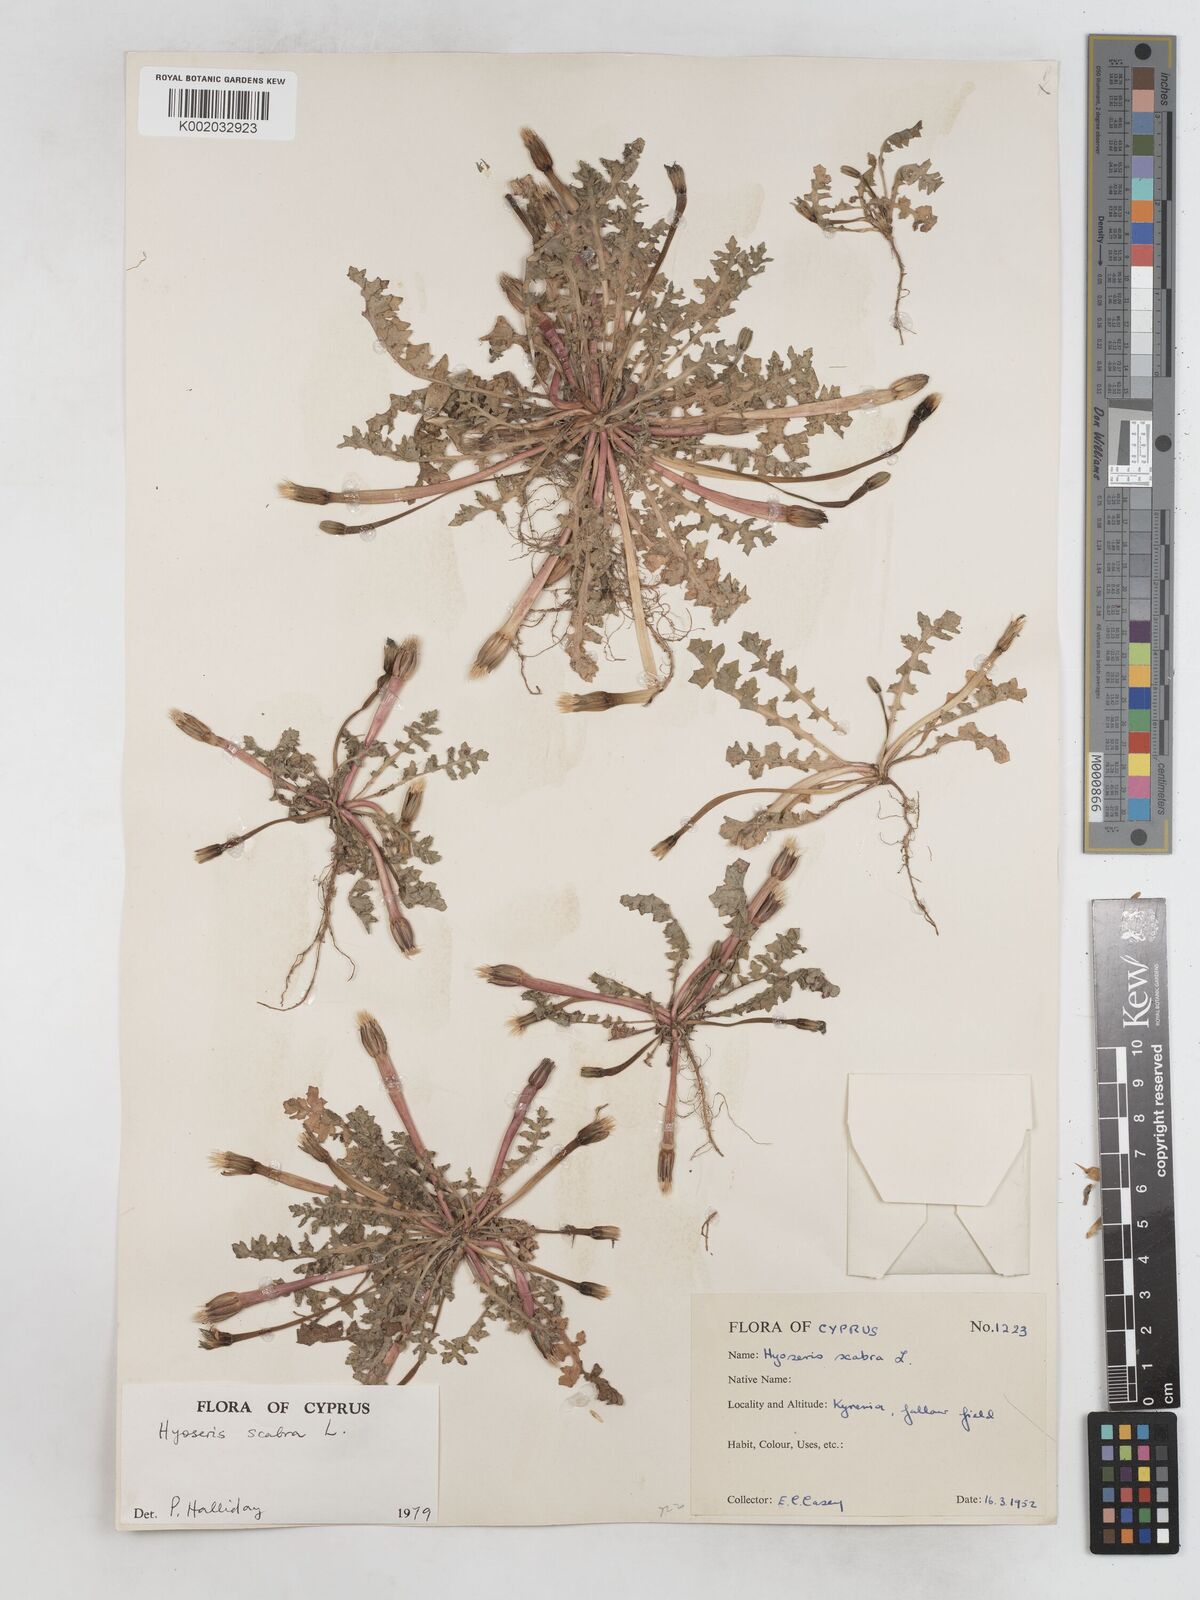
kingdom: Plantae
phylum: Tracheophyta
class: Magnoliopsida
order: Asterales
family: Asteraceae
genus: Hyoseris
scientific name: Hyoseris scabra
